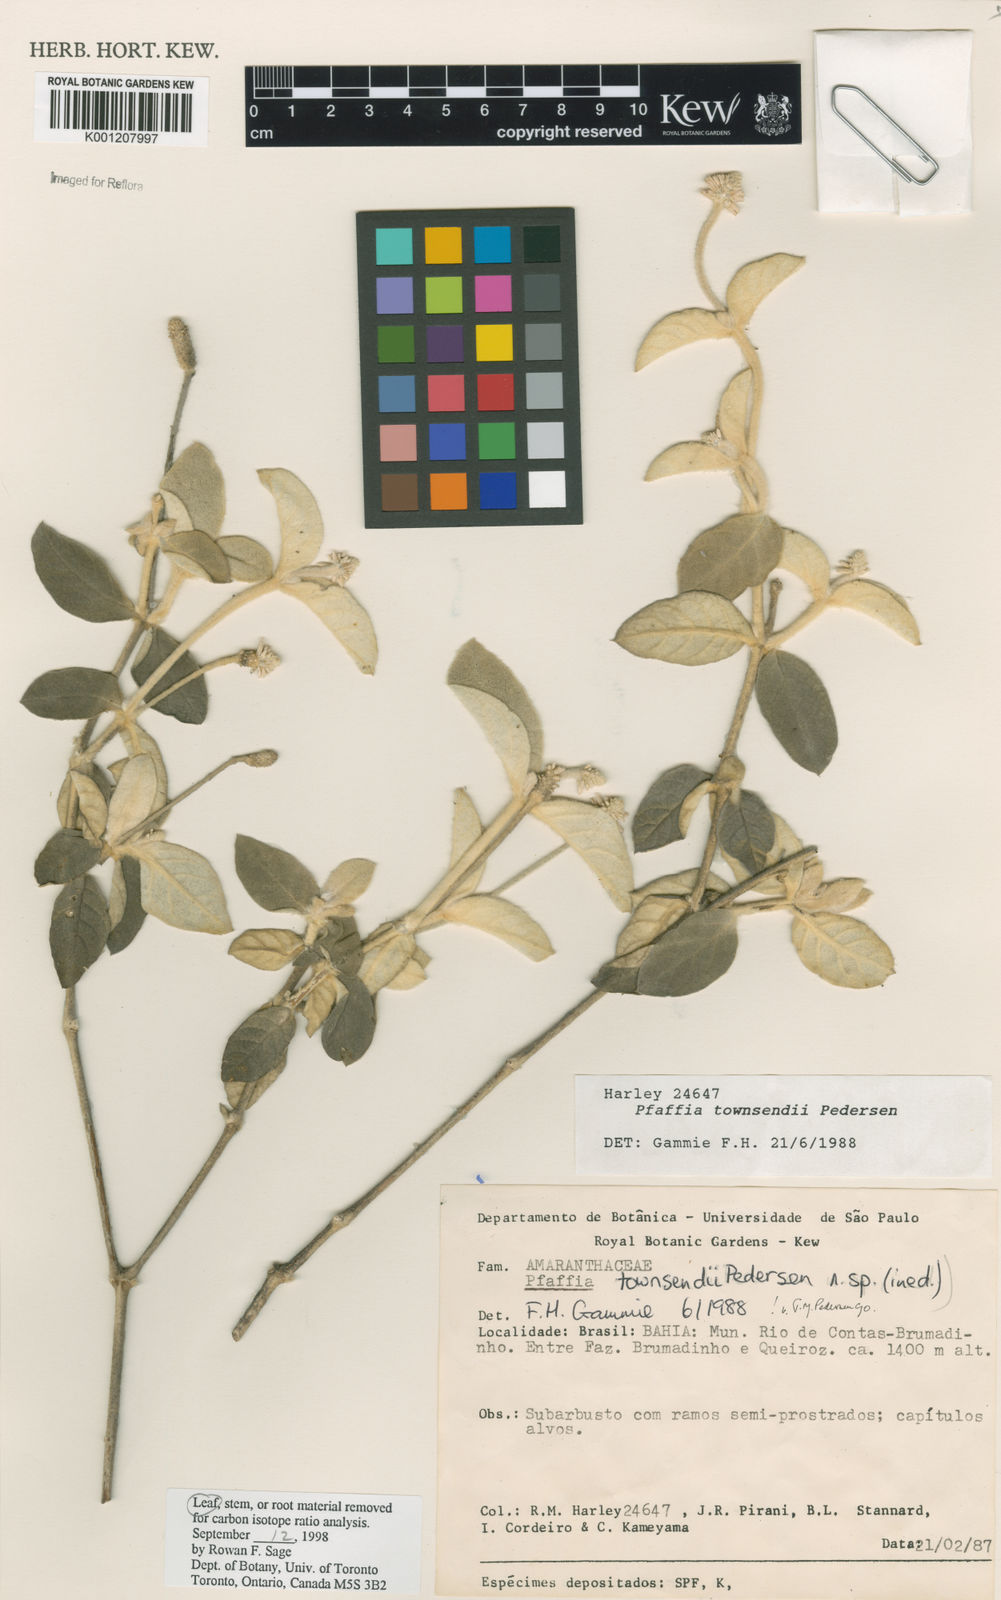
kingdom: Plantae
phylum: Tracheophyta
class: Magnoliopsida
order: Caryophyllales
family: Amaranthaceae
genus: Pfaffia
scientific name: Pfaffia townsendii
